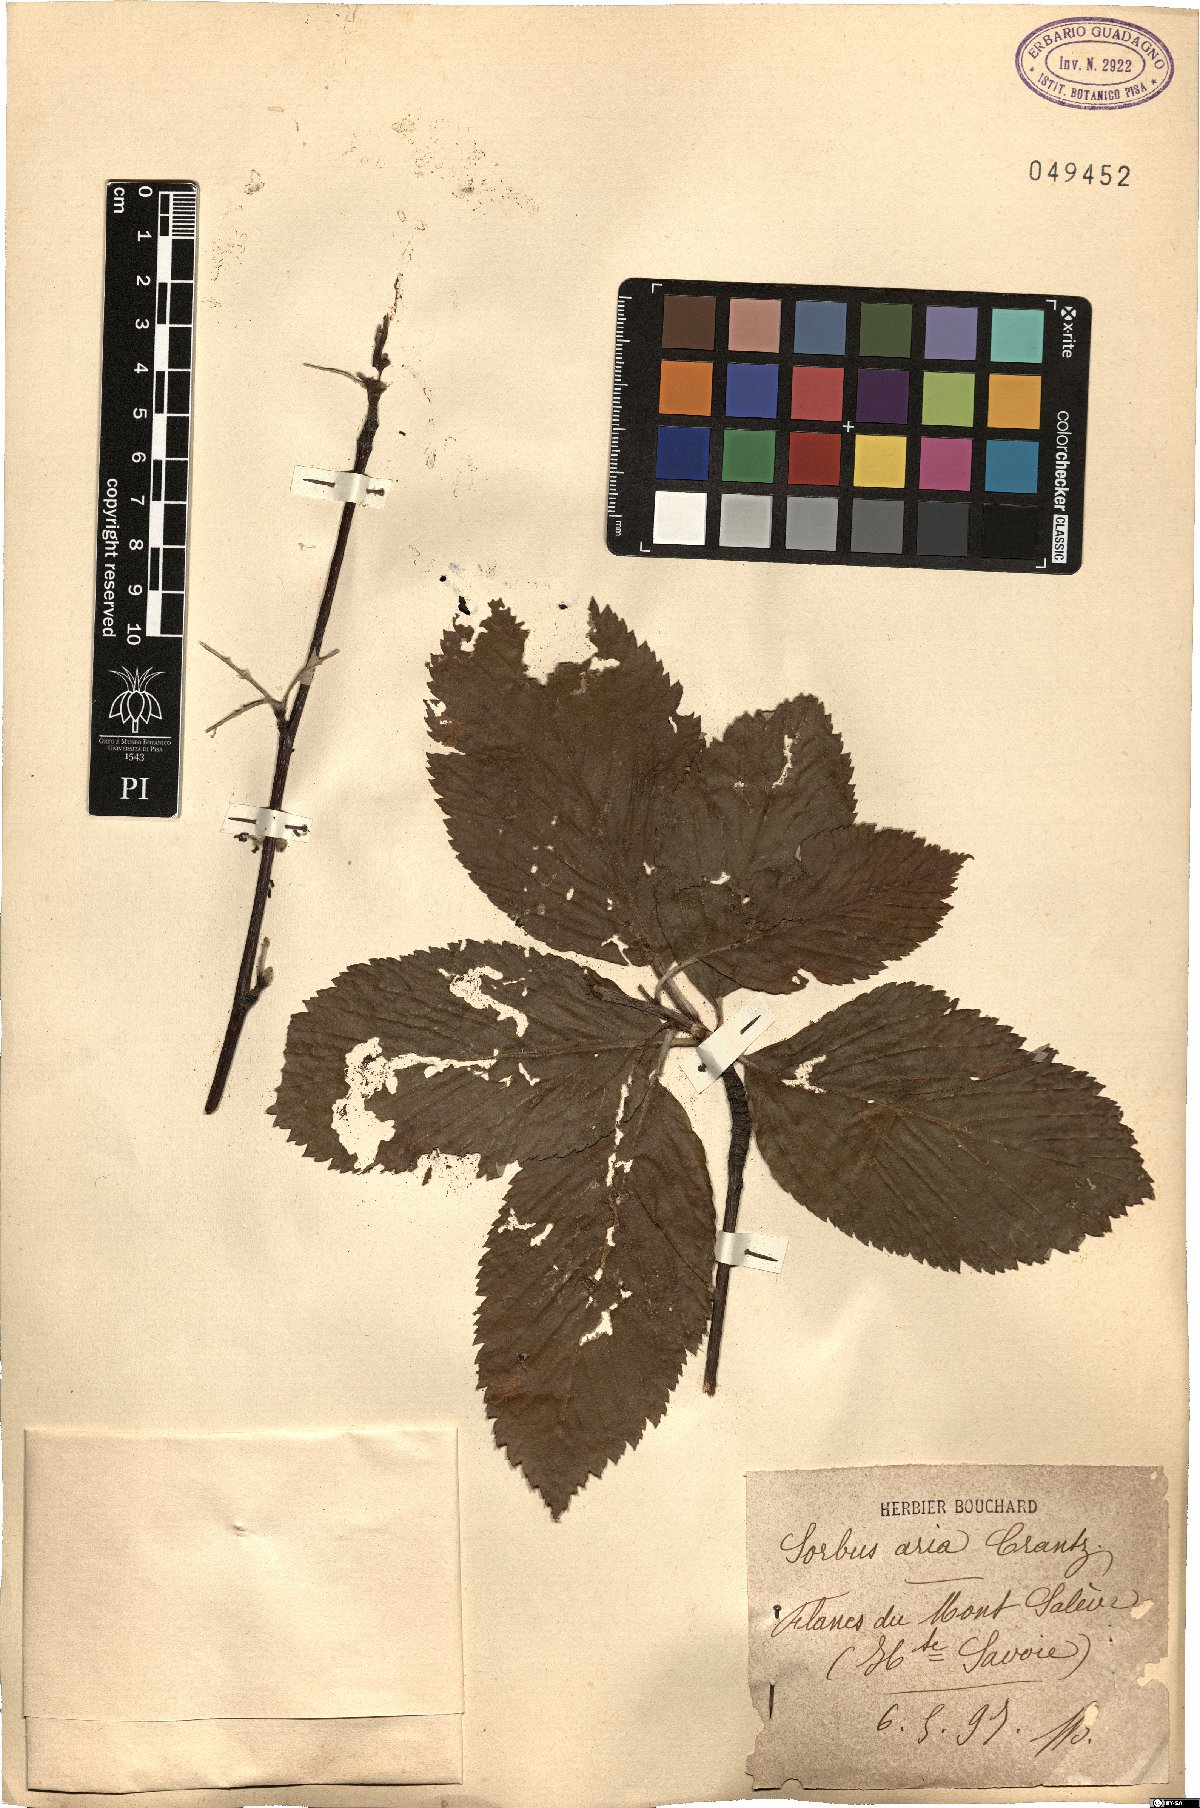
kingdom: Plantae
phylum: Tracheophyta
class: Magnoliopsida
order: Rosales
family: Rosaceae
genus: Aria
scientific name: Aria edulis
